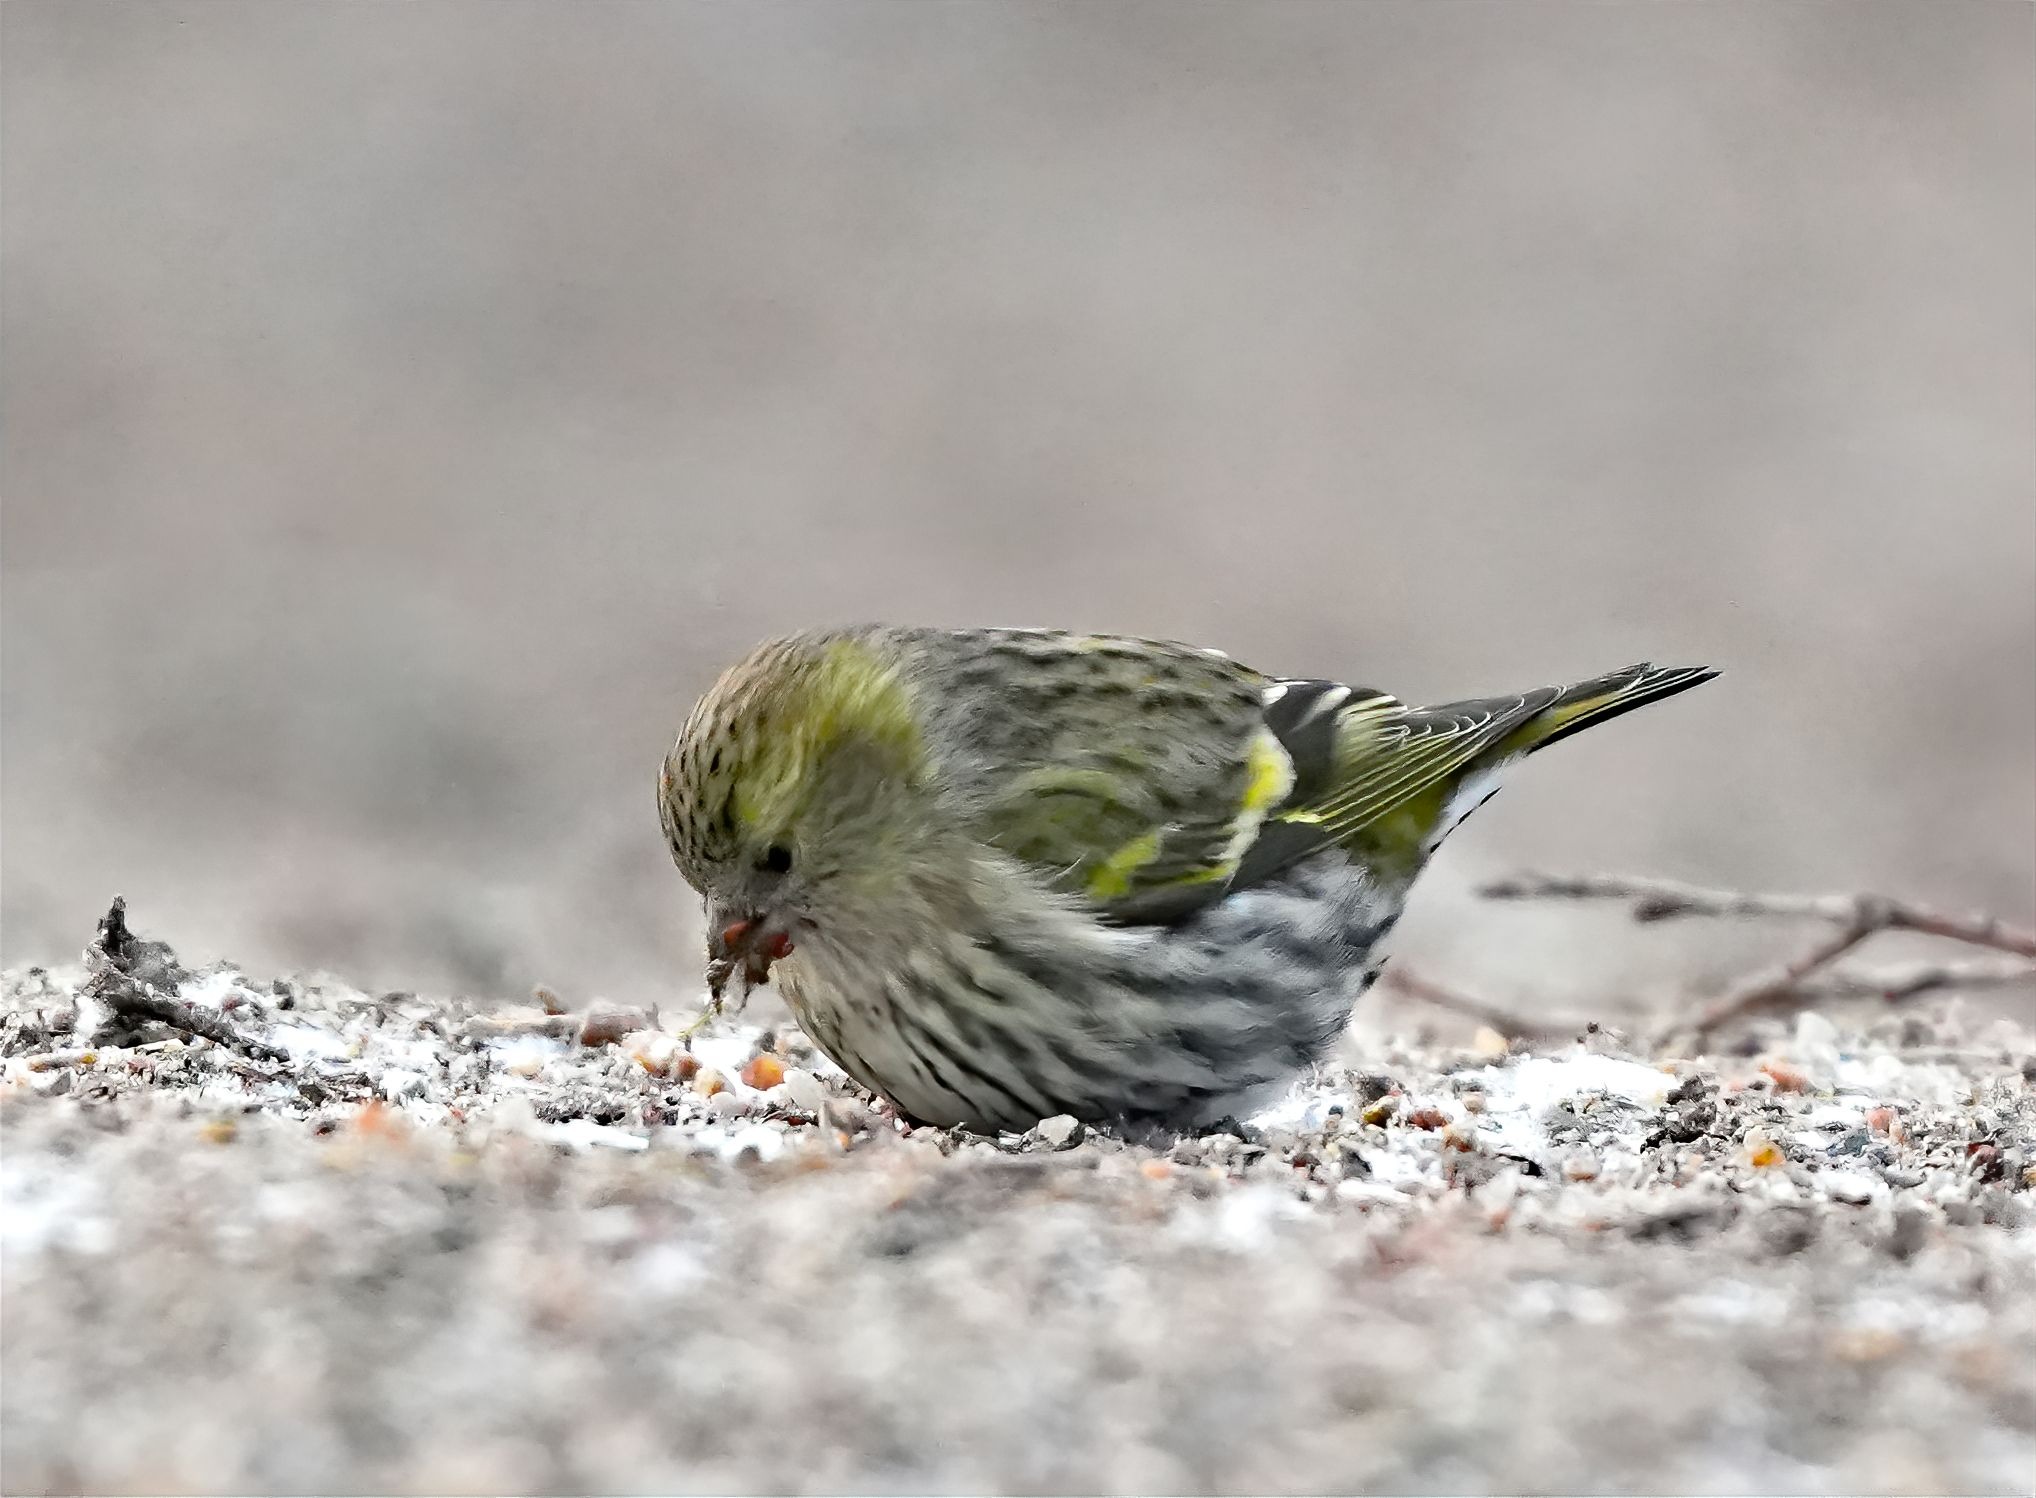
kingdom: Animalia
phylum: Chordata
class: Aves
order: Passeriformes
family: Fringillidae
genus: Spinus
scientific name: Spinus spinus
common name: Grønsisken
